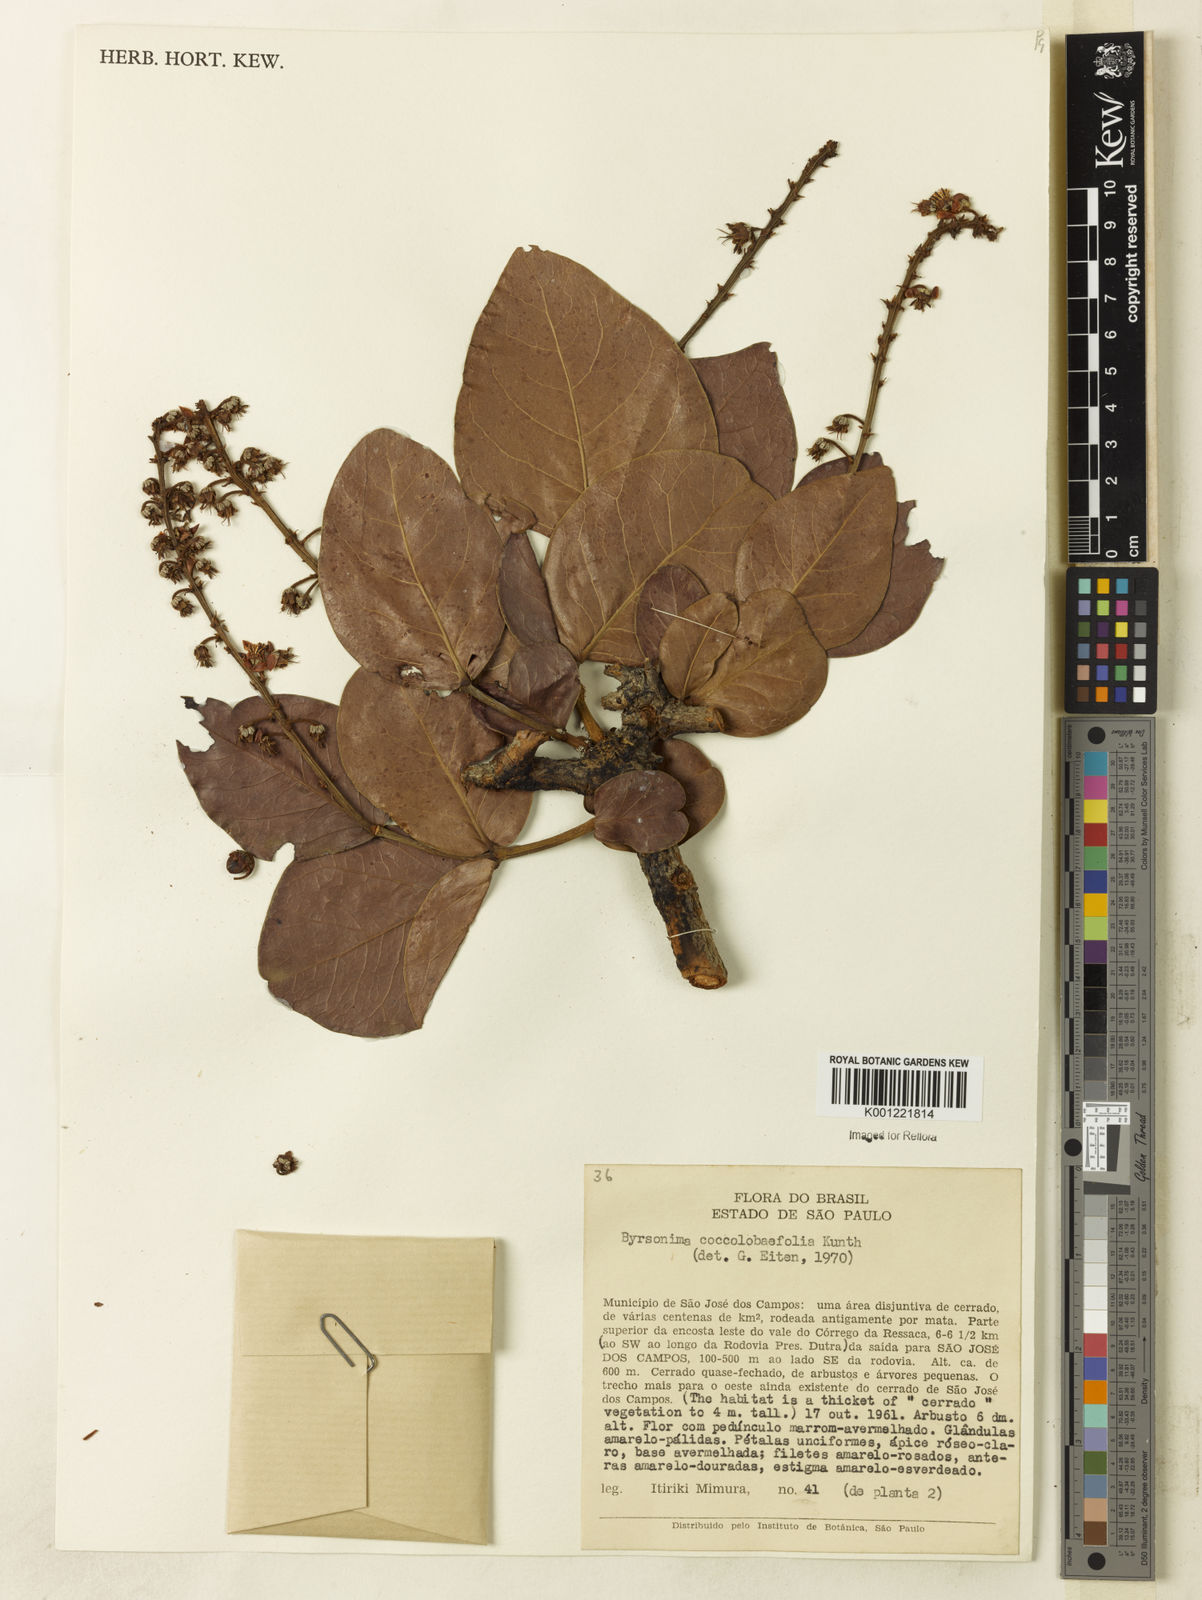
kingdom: Plantae
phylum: Tracheophyta
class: Magnoliopsida
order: Malpighiales
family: Malpighiaceae
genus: Byrsonima
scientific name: Byrsonima coccolobifolia
